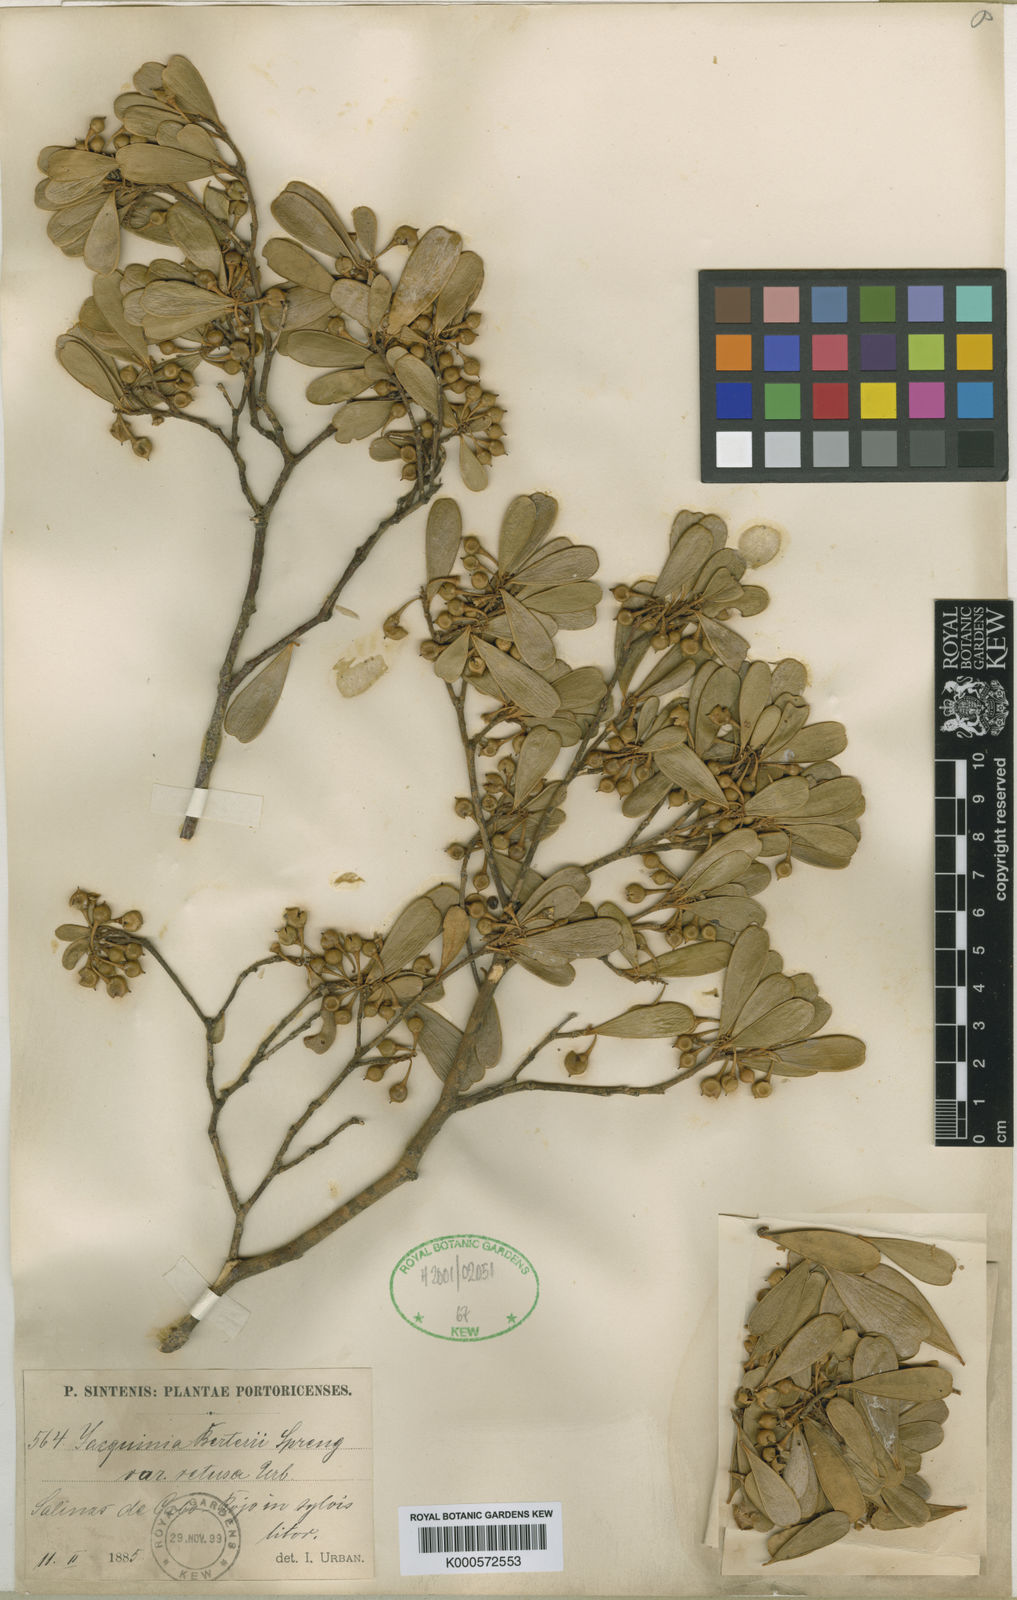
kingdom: Plantae
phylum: Tracheophyta
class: Magnoliopsida
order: Ericales
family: Primulaceae
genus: Jacquinia
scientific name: Jacquinia berteroi
